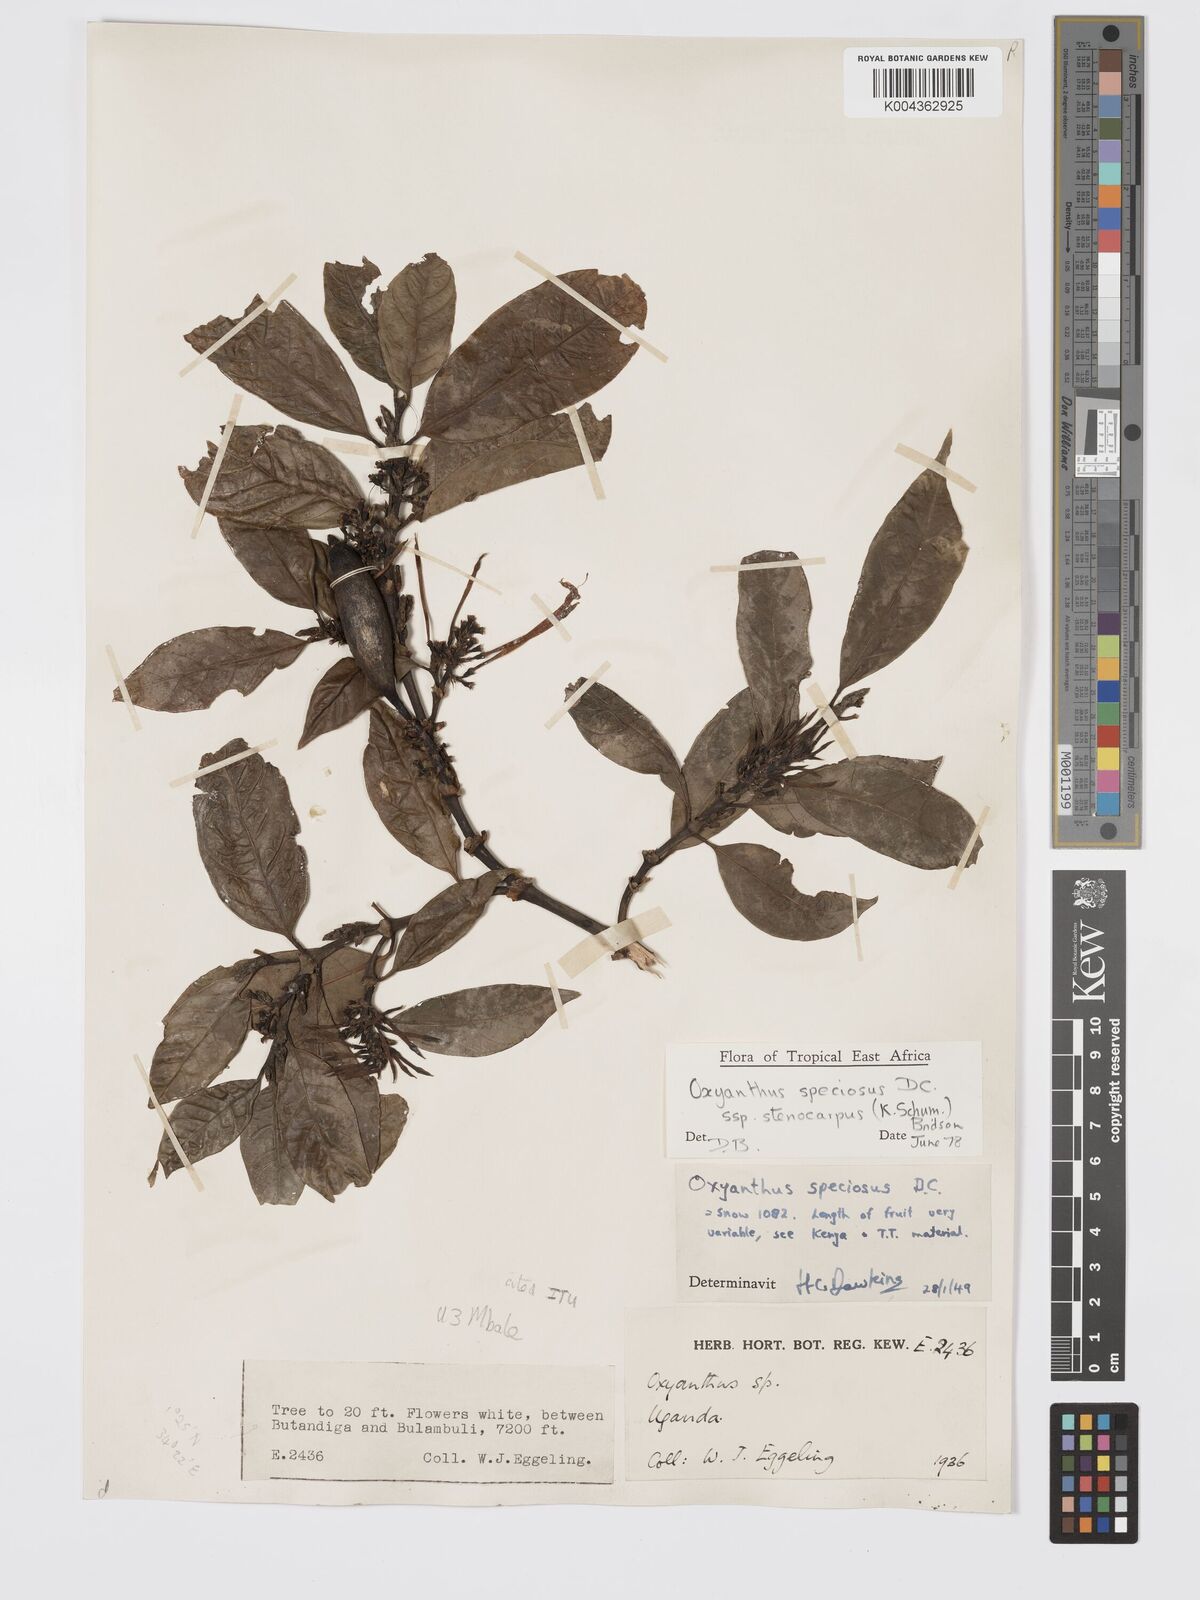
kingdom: Plantae
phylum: Tracheophyta
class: Magnoliopsida
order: Gentianales
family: Rubiaceae
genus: Oxyanthus
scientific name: Oxyanthus
